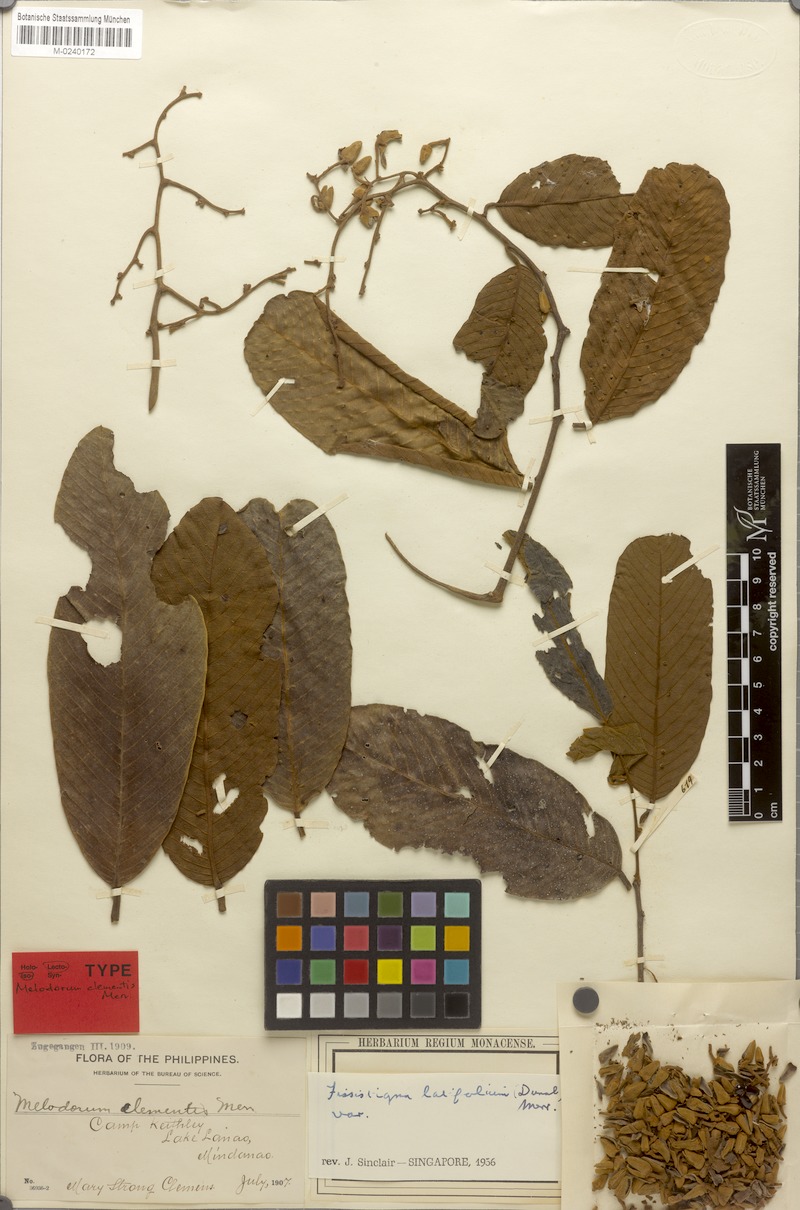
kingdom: Plantae
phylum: Tracheophyta
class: Magnoliopsida
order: Magnoliales
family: Annonaceae
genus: Fissistigma
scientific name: Fissistigma latifolium
